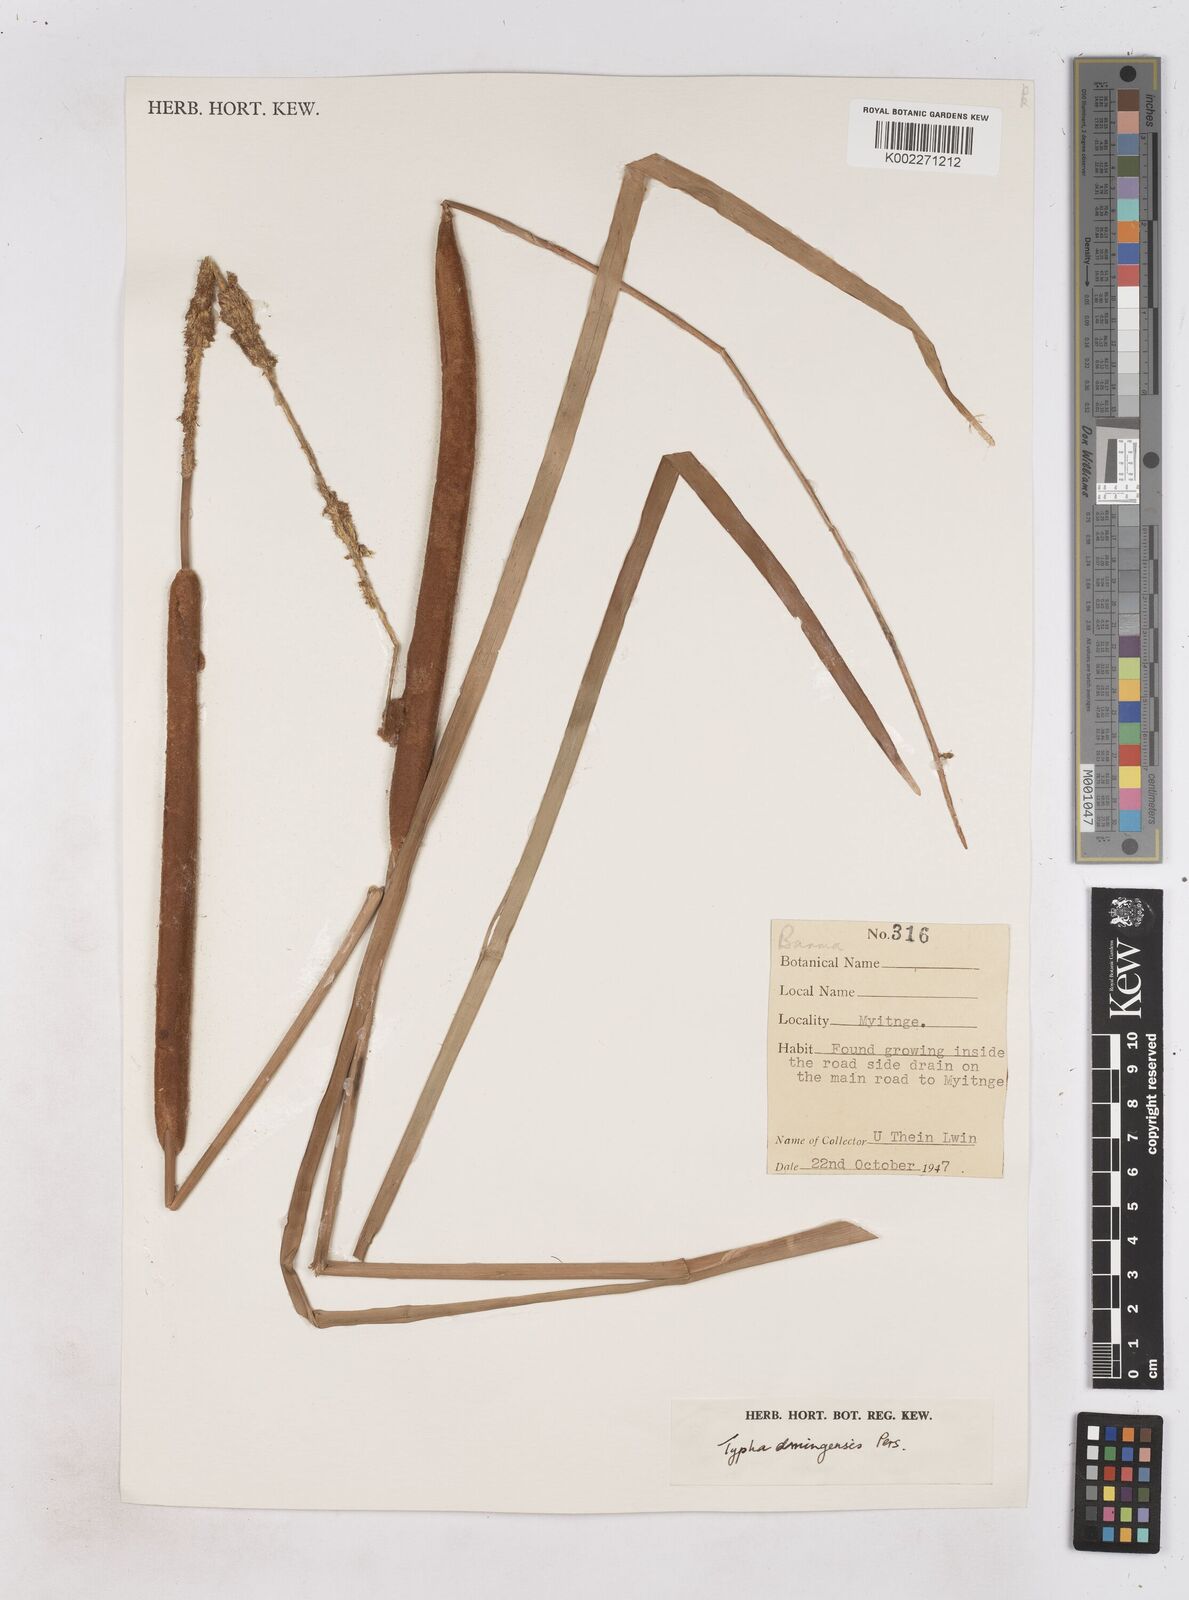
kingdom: Plantae
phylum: Tracheophyta
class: Liliopsida
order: Poales
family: Typhaceae
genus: Typha
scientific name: Typha domingensis
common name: Southern cattail
